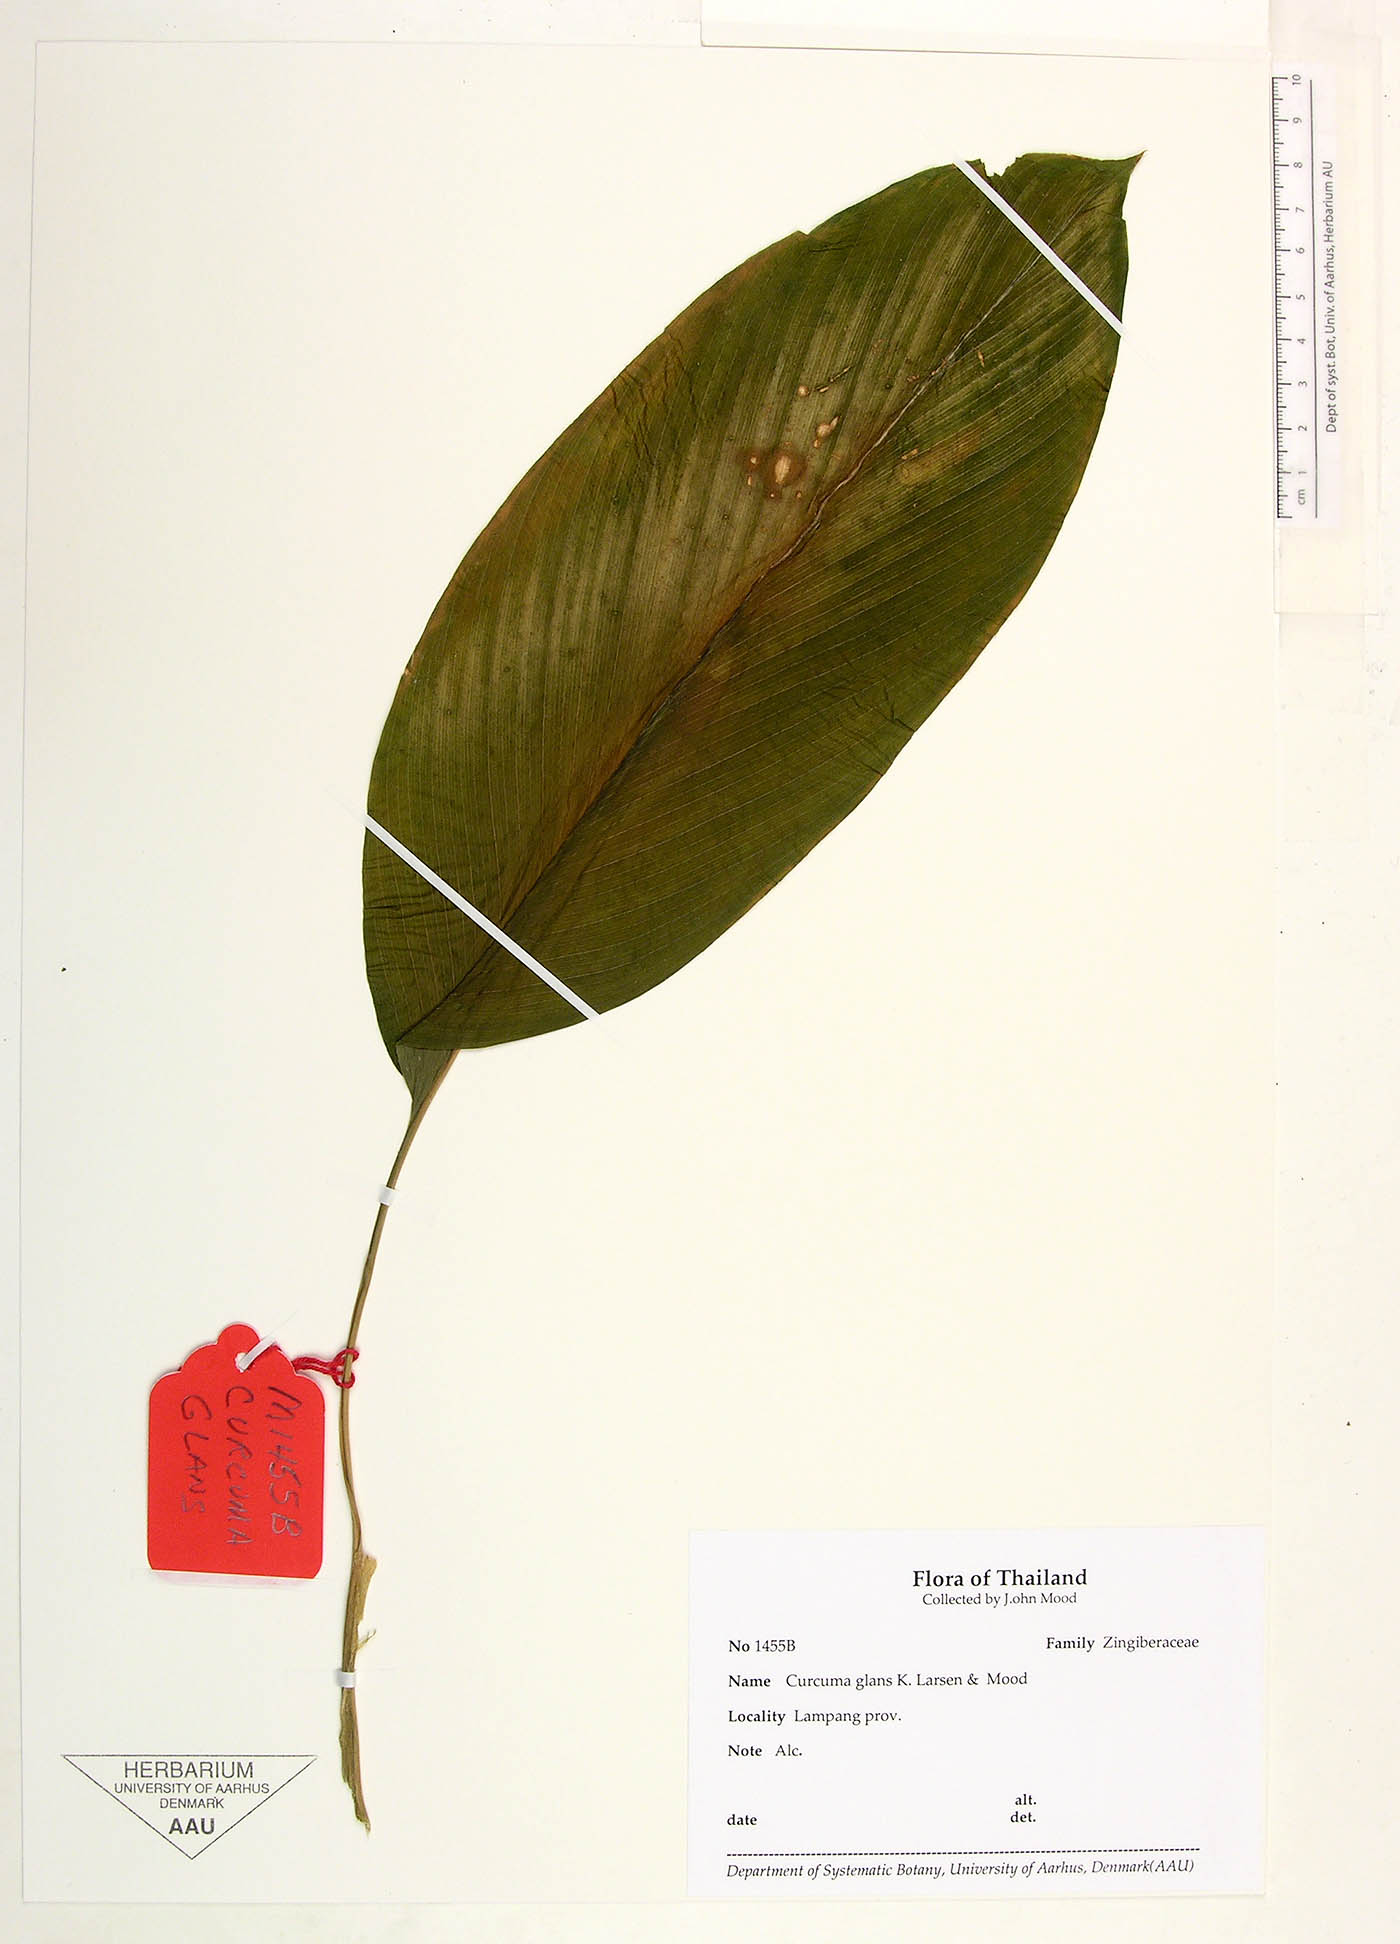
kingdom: Plantae
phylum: Tracheophyta
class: Liliopsida
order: Zingiberales
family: Zingiberaceae
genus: Curcuma
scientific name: Curcuma glans
